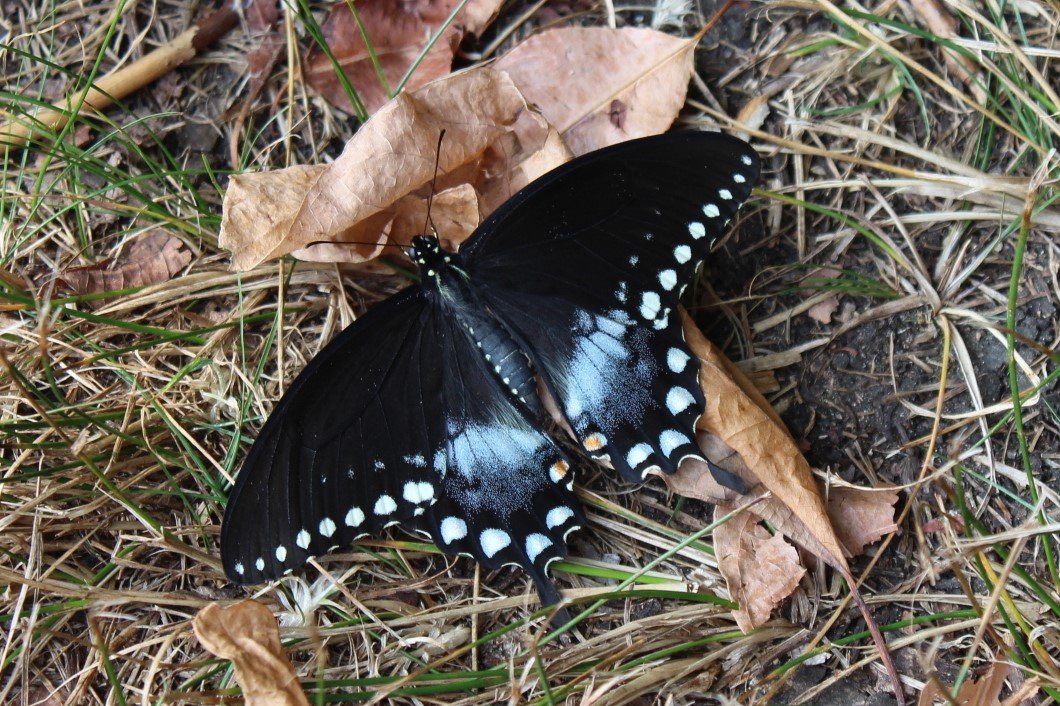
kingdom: Animalia
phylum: Arthropoda
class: Insecta
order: Lepidoptera
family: Papilionidae
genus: Pterourus
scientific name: Pterourus troilus
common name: Spicebush Swallowtail
